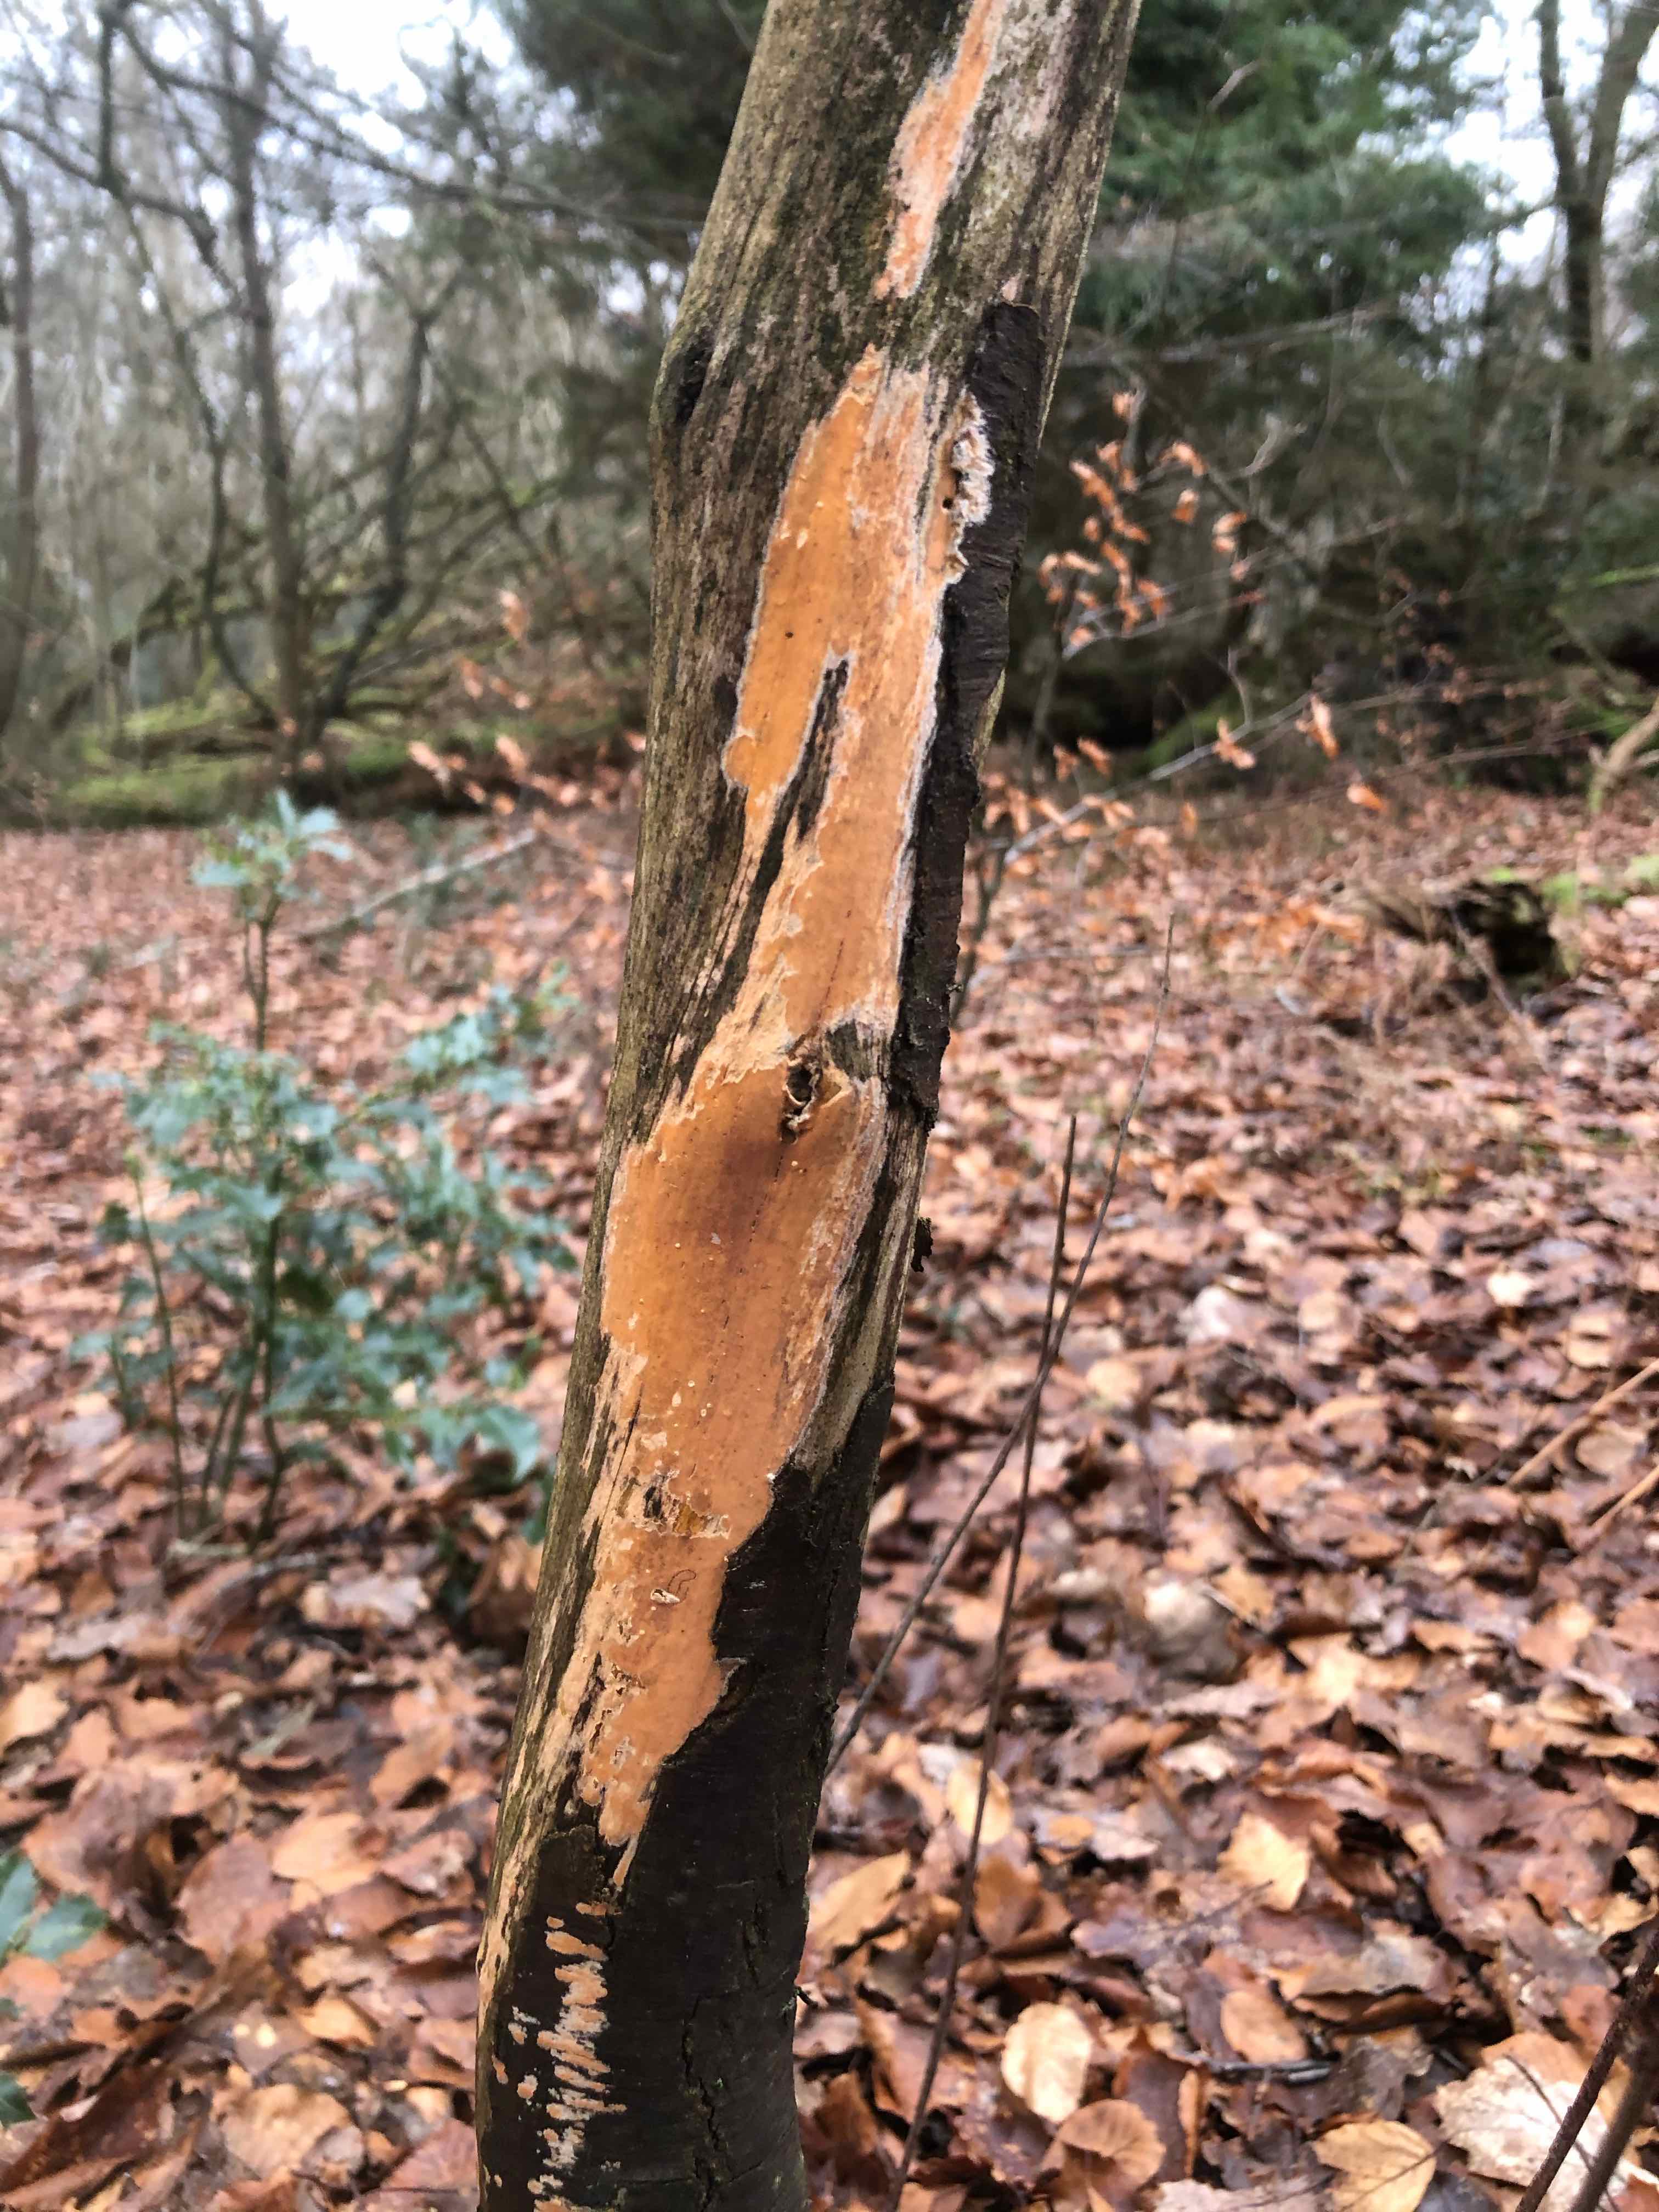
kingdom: Fungi
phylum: Basidiomycota
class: Agaricomycetes
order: Russulales
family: Peniophoraceae
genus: Peniophora
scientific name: Peniophora incarnata
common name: laksefarvet voksskind
